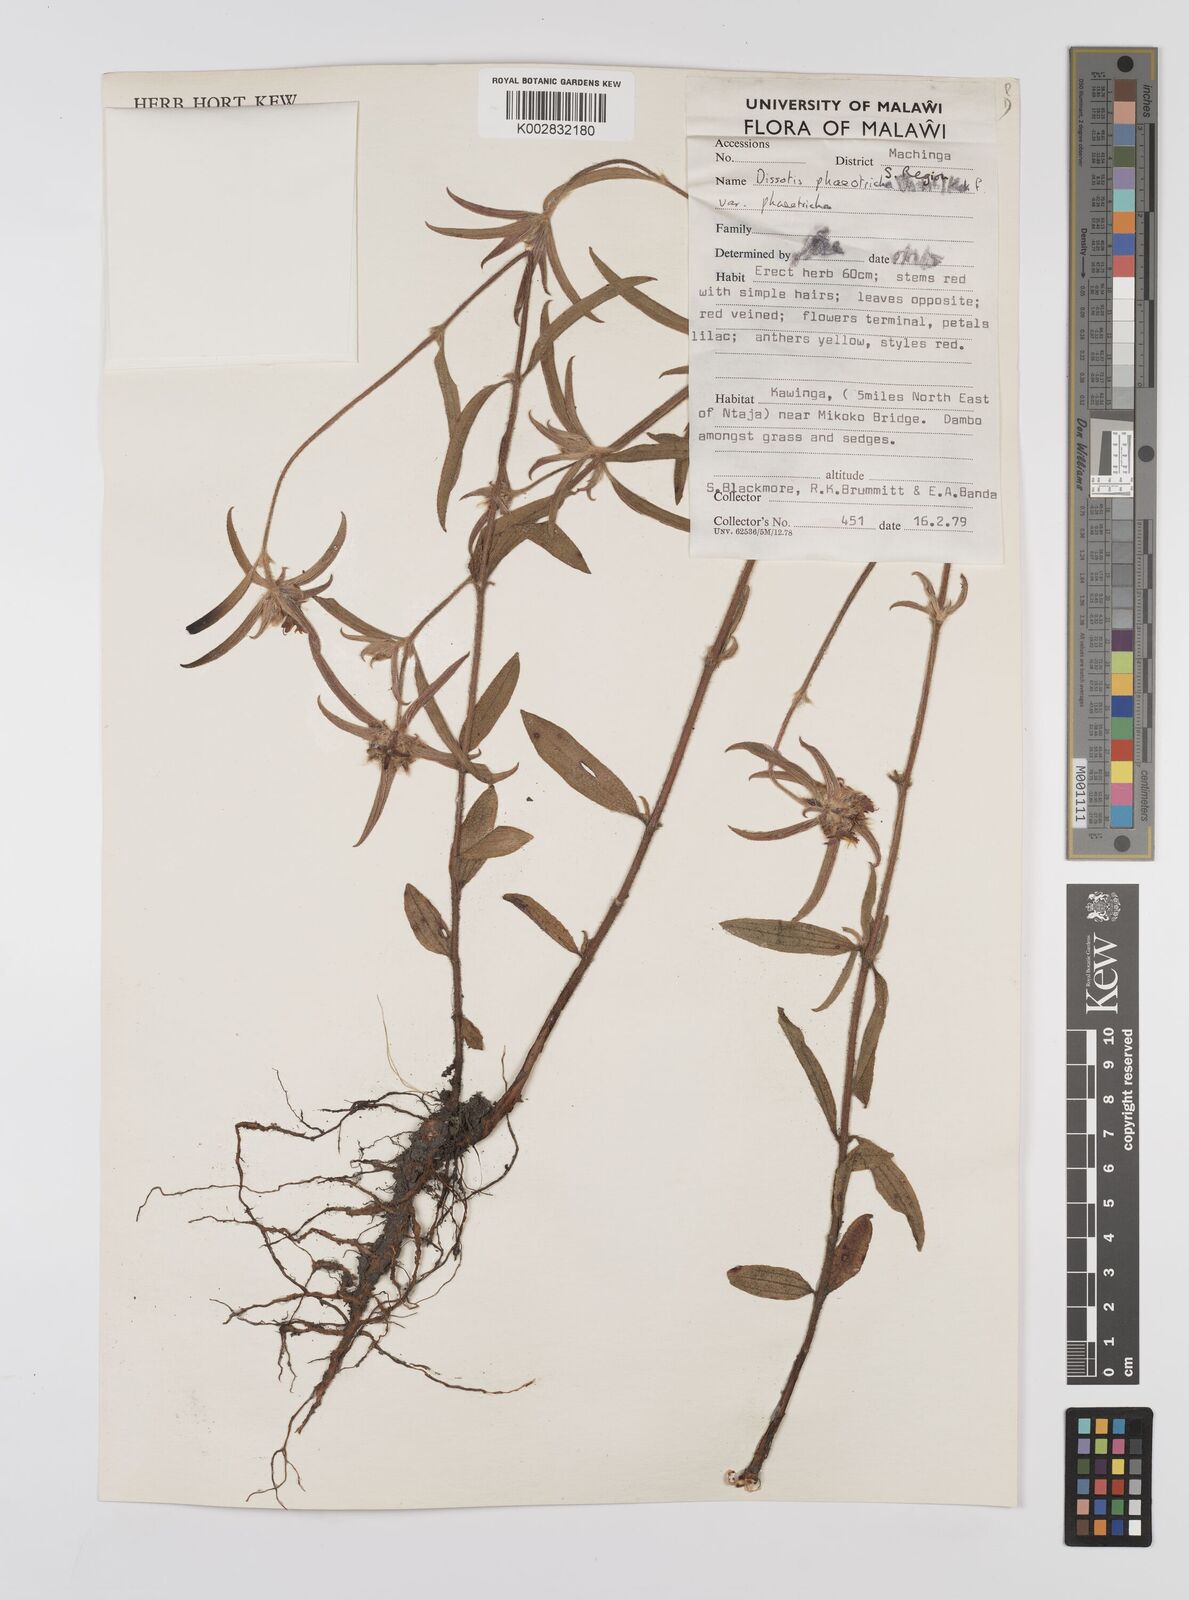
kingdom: Plantae
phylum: Tracheophyta
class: Magnoliopsida
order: Myrtales
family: Melastomataceae
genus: Antherotoma
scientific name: Antherotoma phaeotricha
